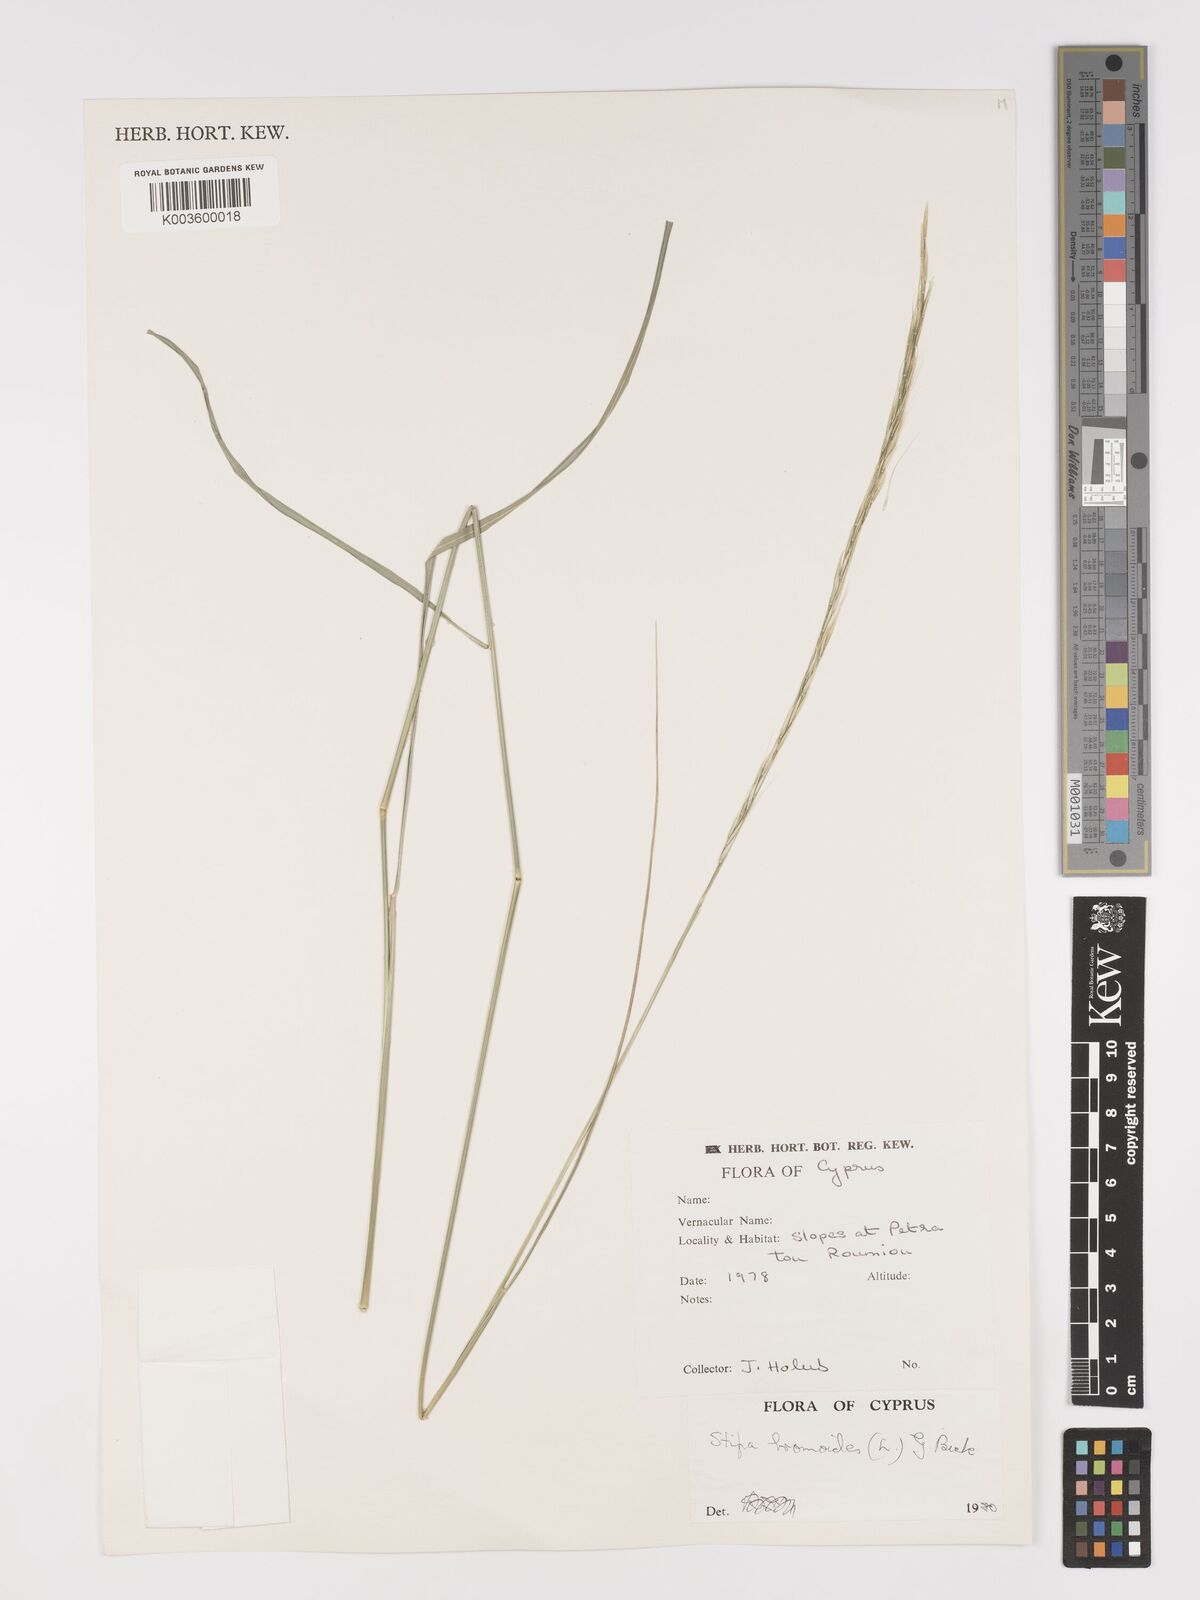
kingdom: Plantae
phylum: Tracheophyta
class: Liliopsida
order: Poales
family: Poaceae
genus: Achnatherum
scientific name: Achnatherum bromoides
